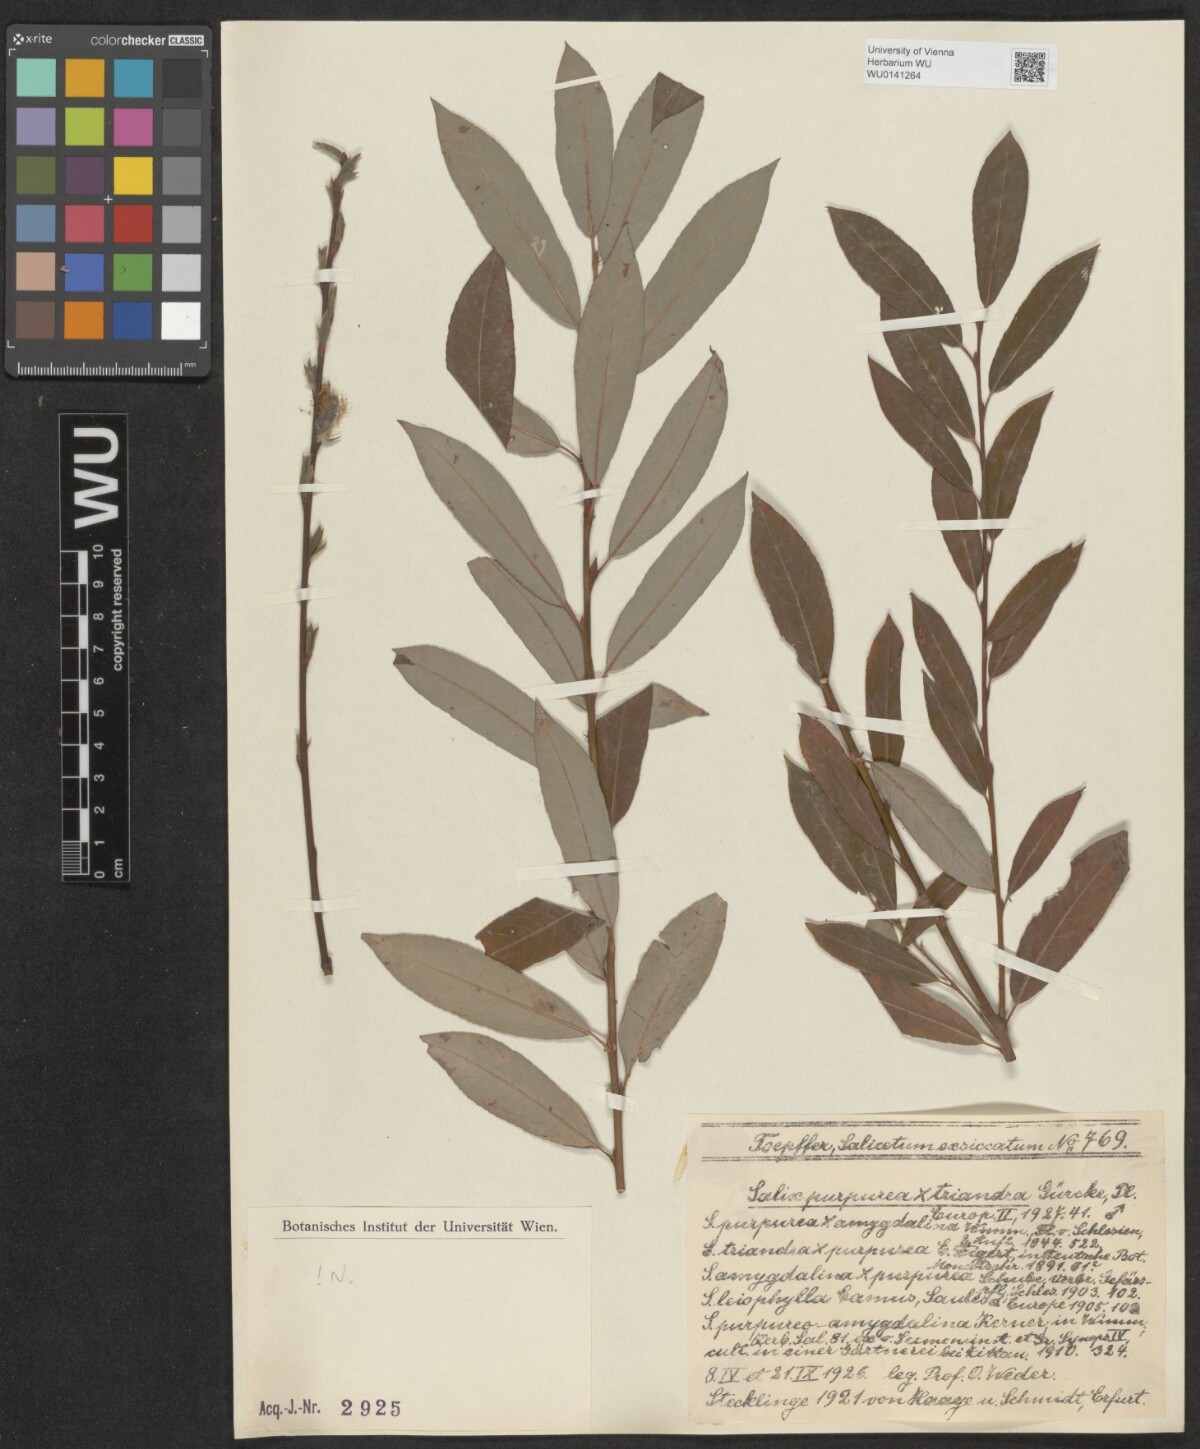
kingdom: Plantae
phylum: Tracheophyta
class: Magnoliopsida
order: Malpighiales
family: Salicaceae
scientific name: Salicaceae
